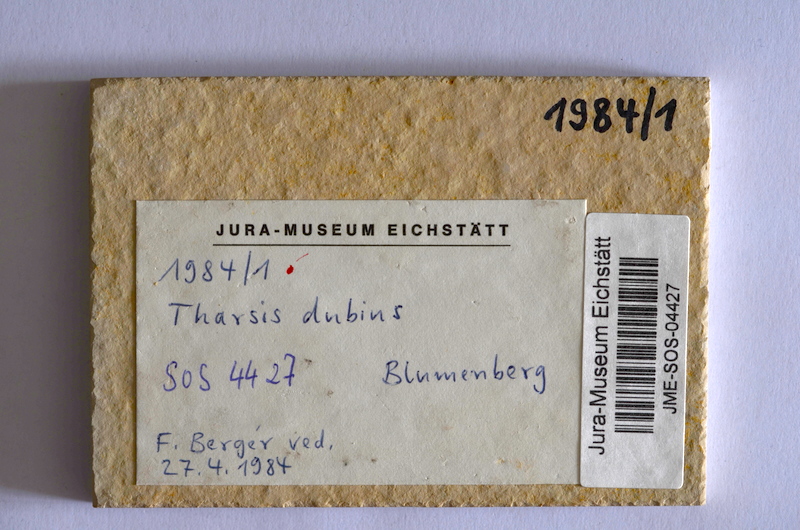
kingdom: Animalia
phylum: Chordata
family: Ascalaboidae
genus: Tharsis
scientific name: Tharsis dubius
